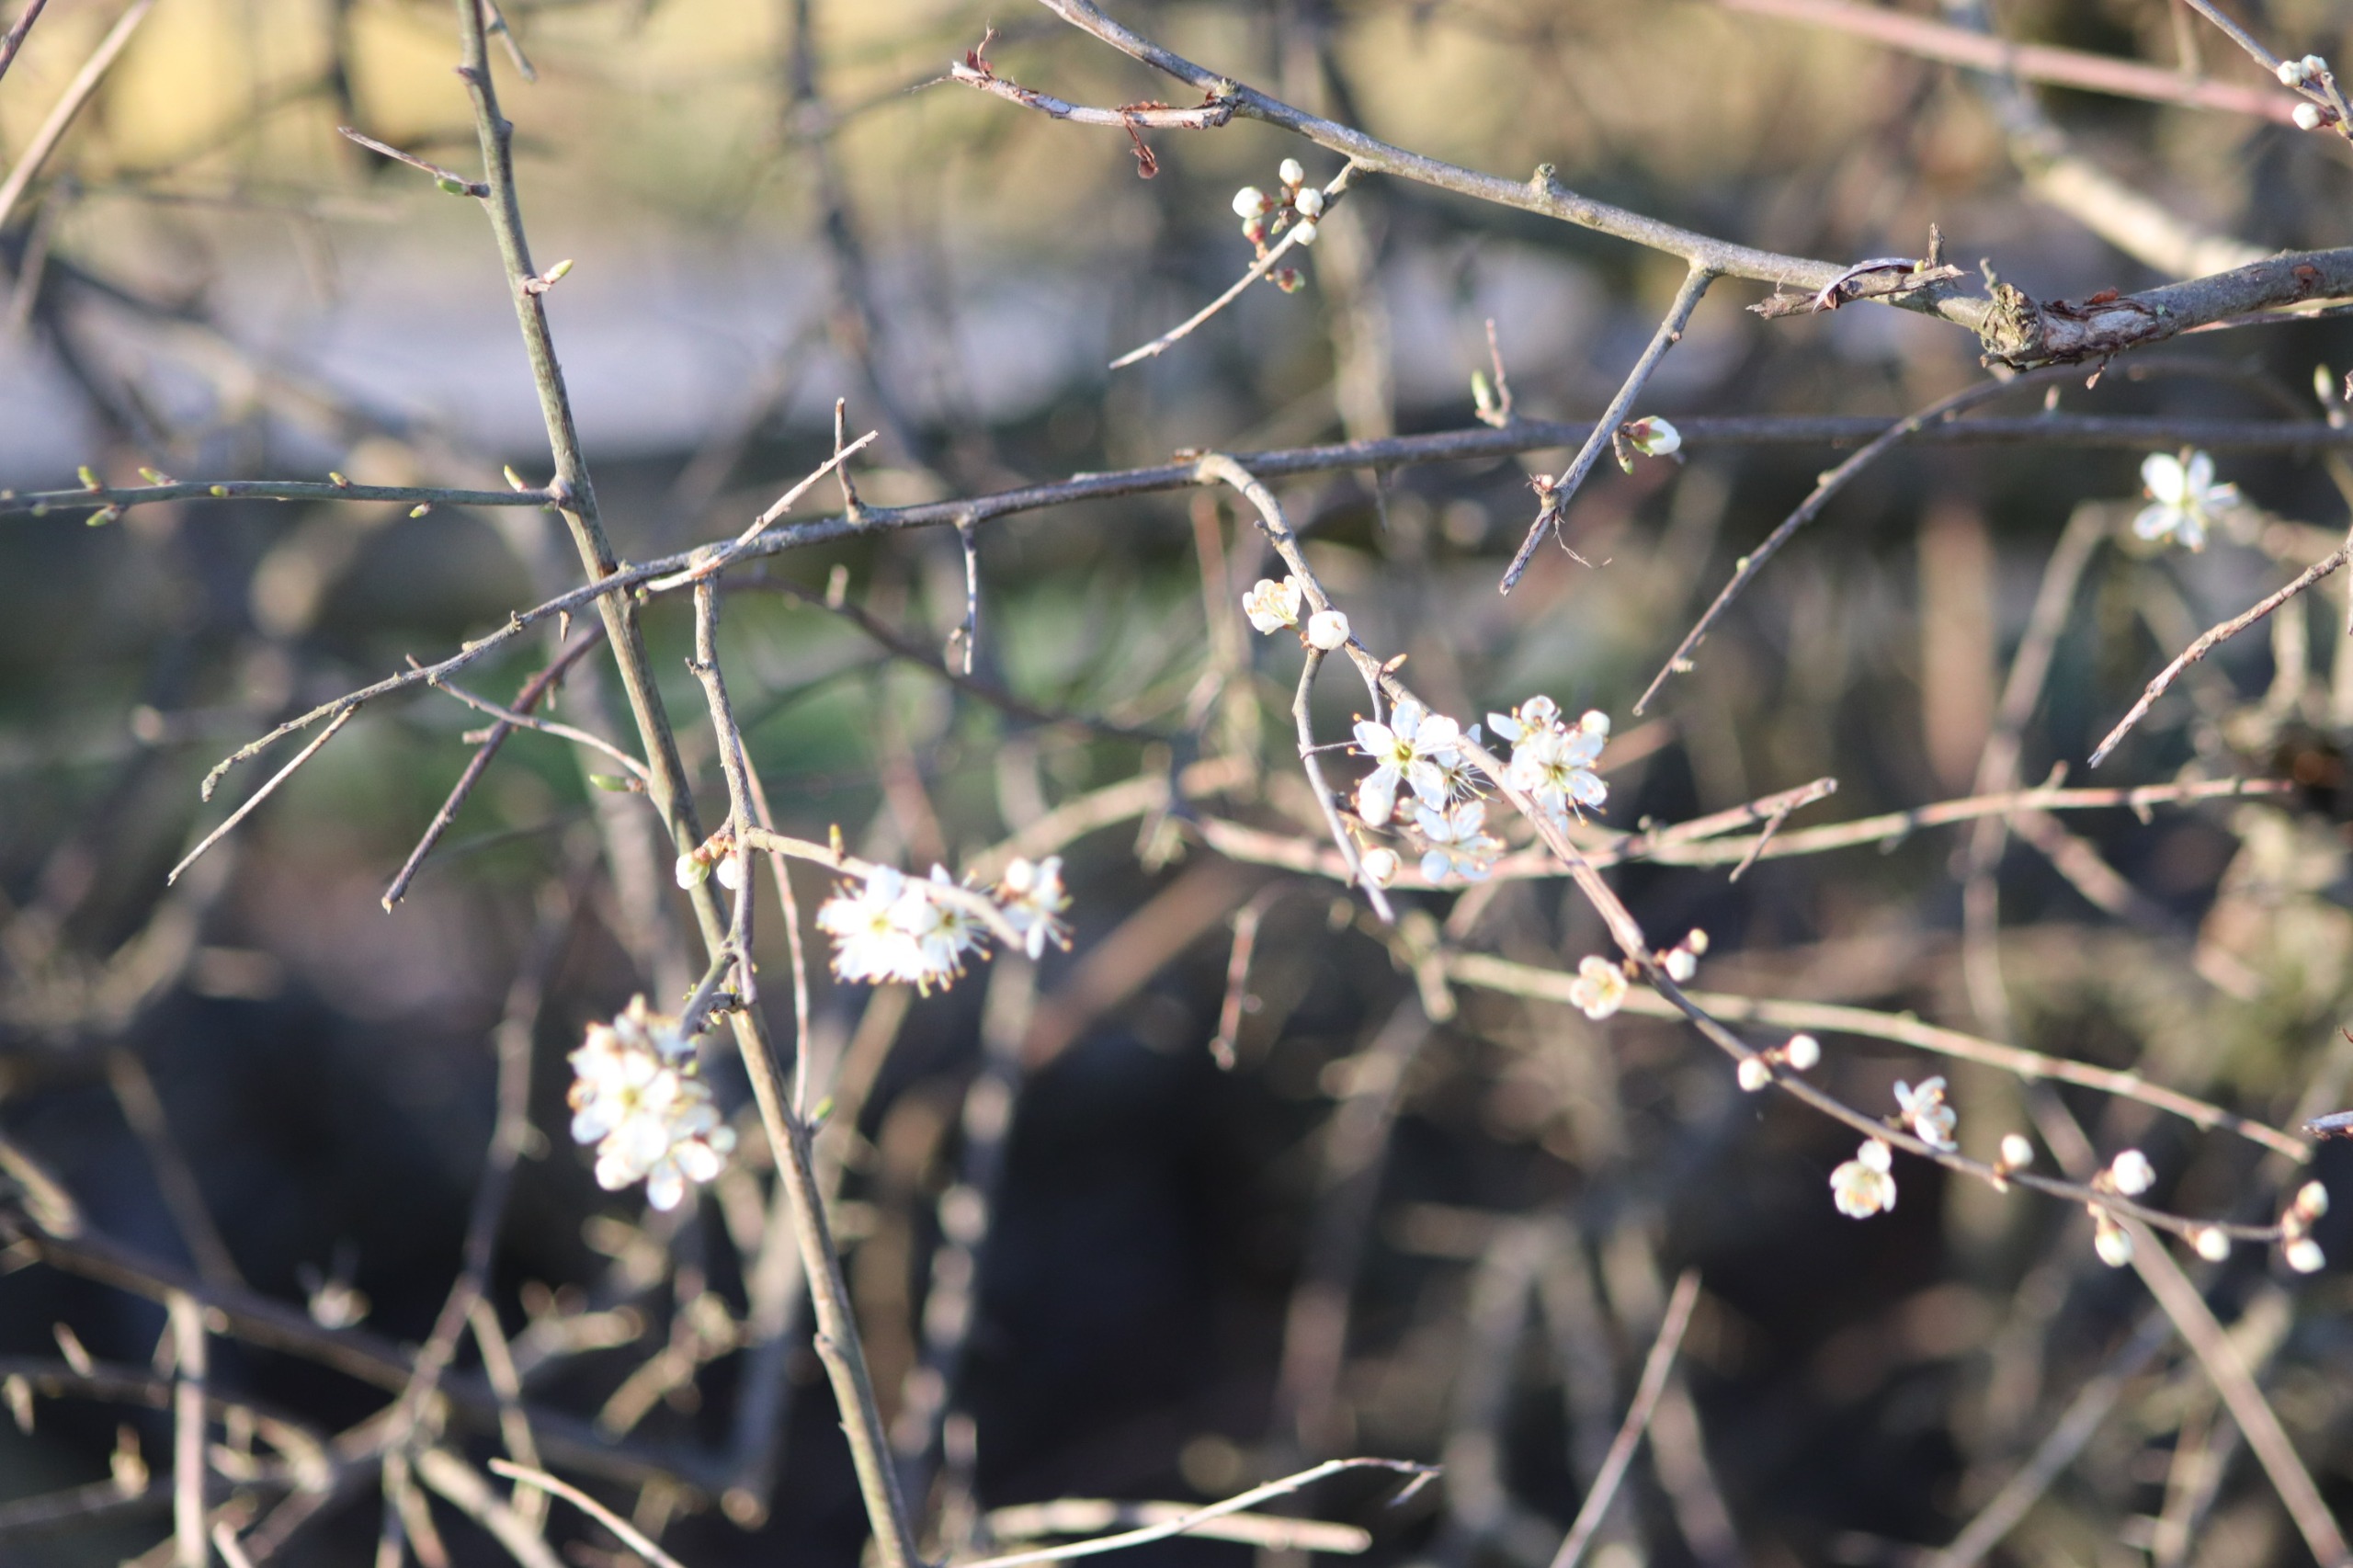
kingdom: Plantae
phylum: Tracheophyta
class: Magnoliopsida
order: Rosales
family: Rosaceae
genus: Prunus
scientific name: Prunus spinosa
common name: Slåen
